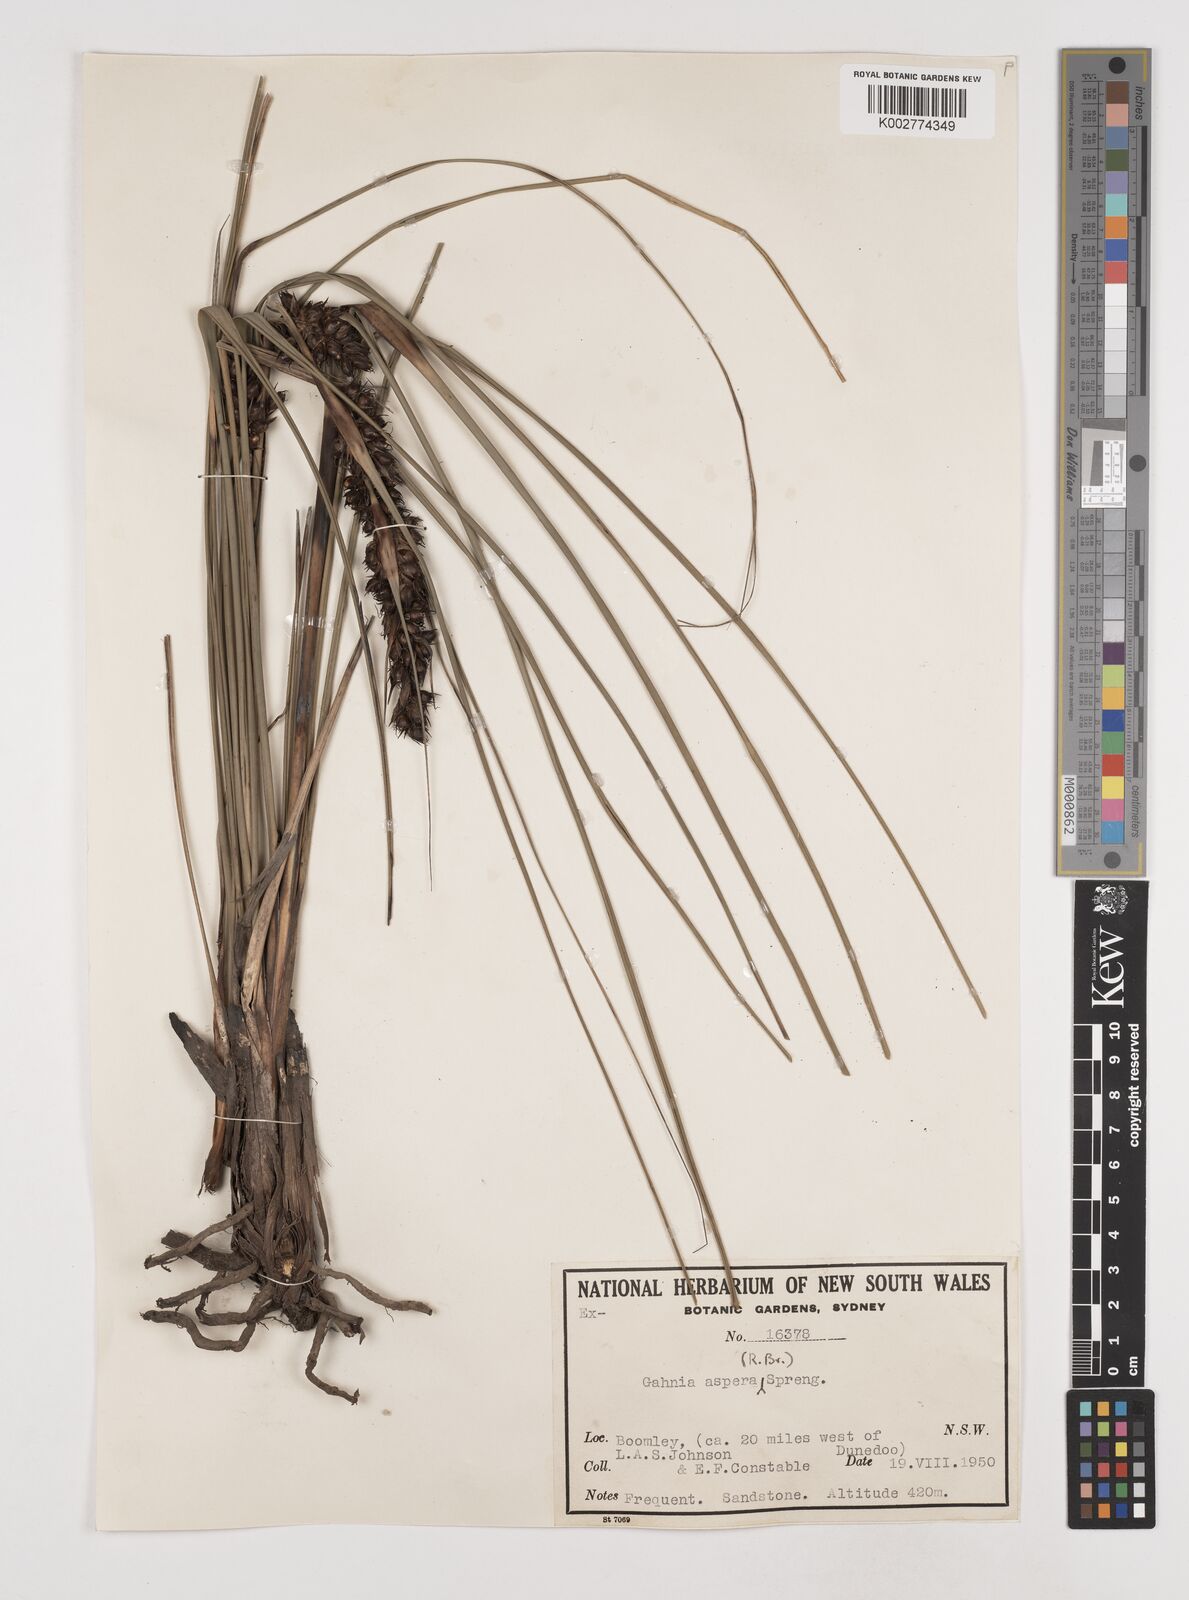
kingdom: Plantae
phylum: Tracheophyta
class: Liliopsida
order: Poales
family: Cyperaceae
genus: Gahnia
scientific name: Gahnia aspera
